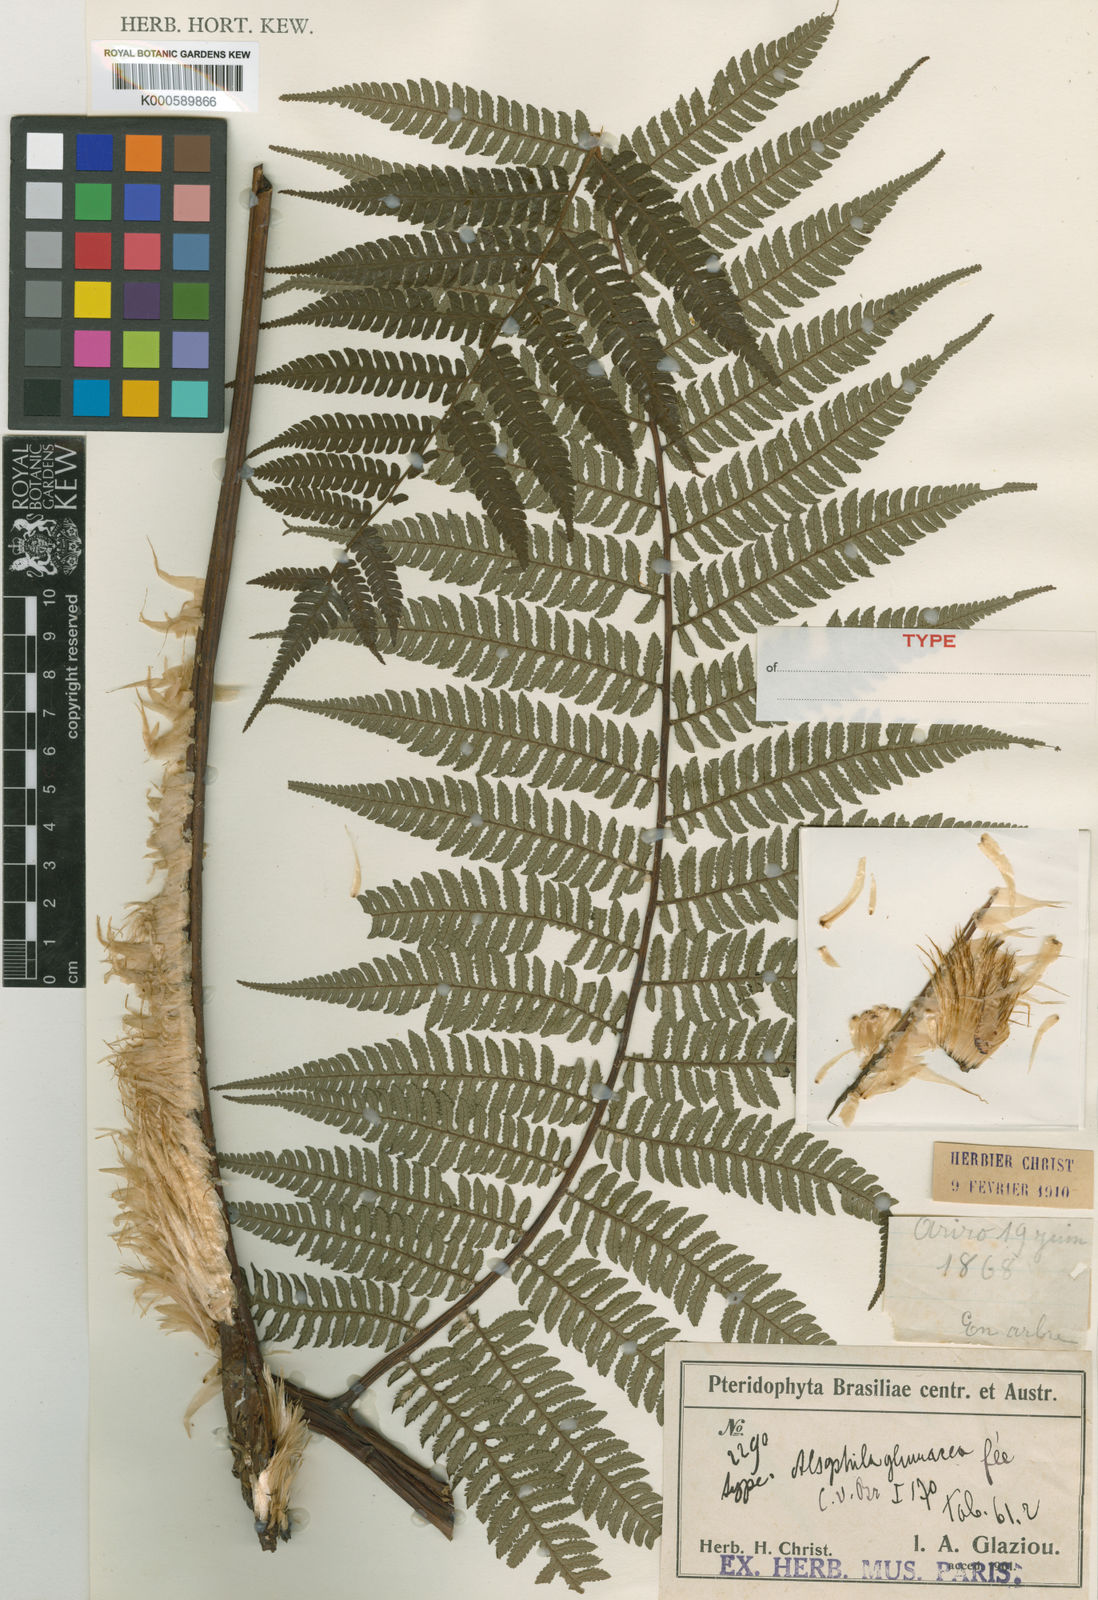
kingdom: Plantae
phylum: Tracheophyta
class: Polypodiopsida
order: Cyatheales
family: Cyatheaceae
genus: Sphaeropteris
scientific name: Sphaeropteris leucolepis
